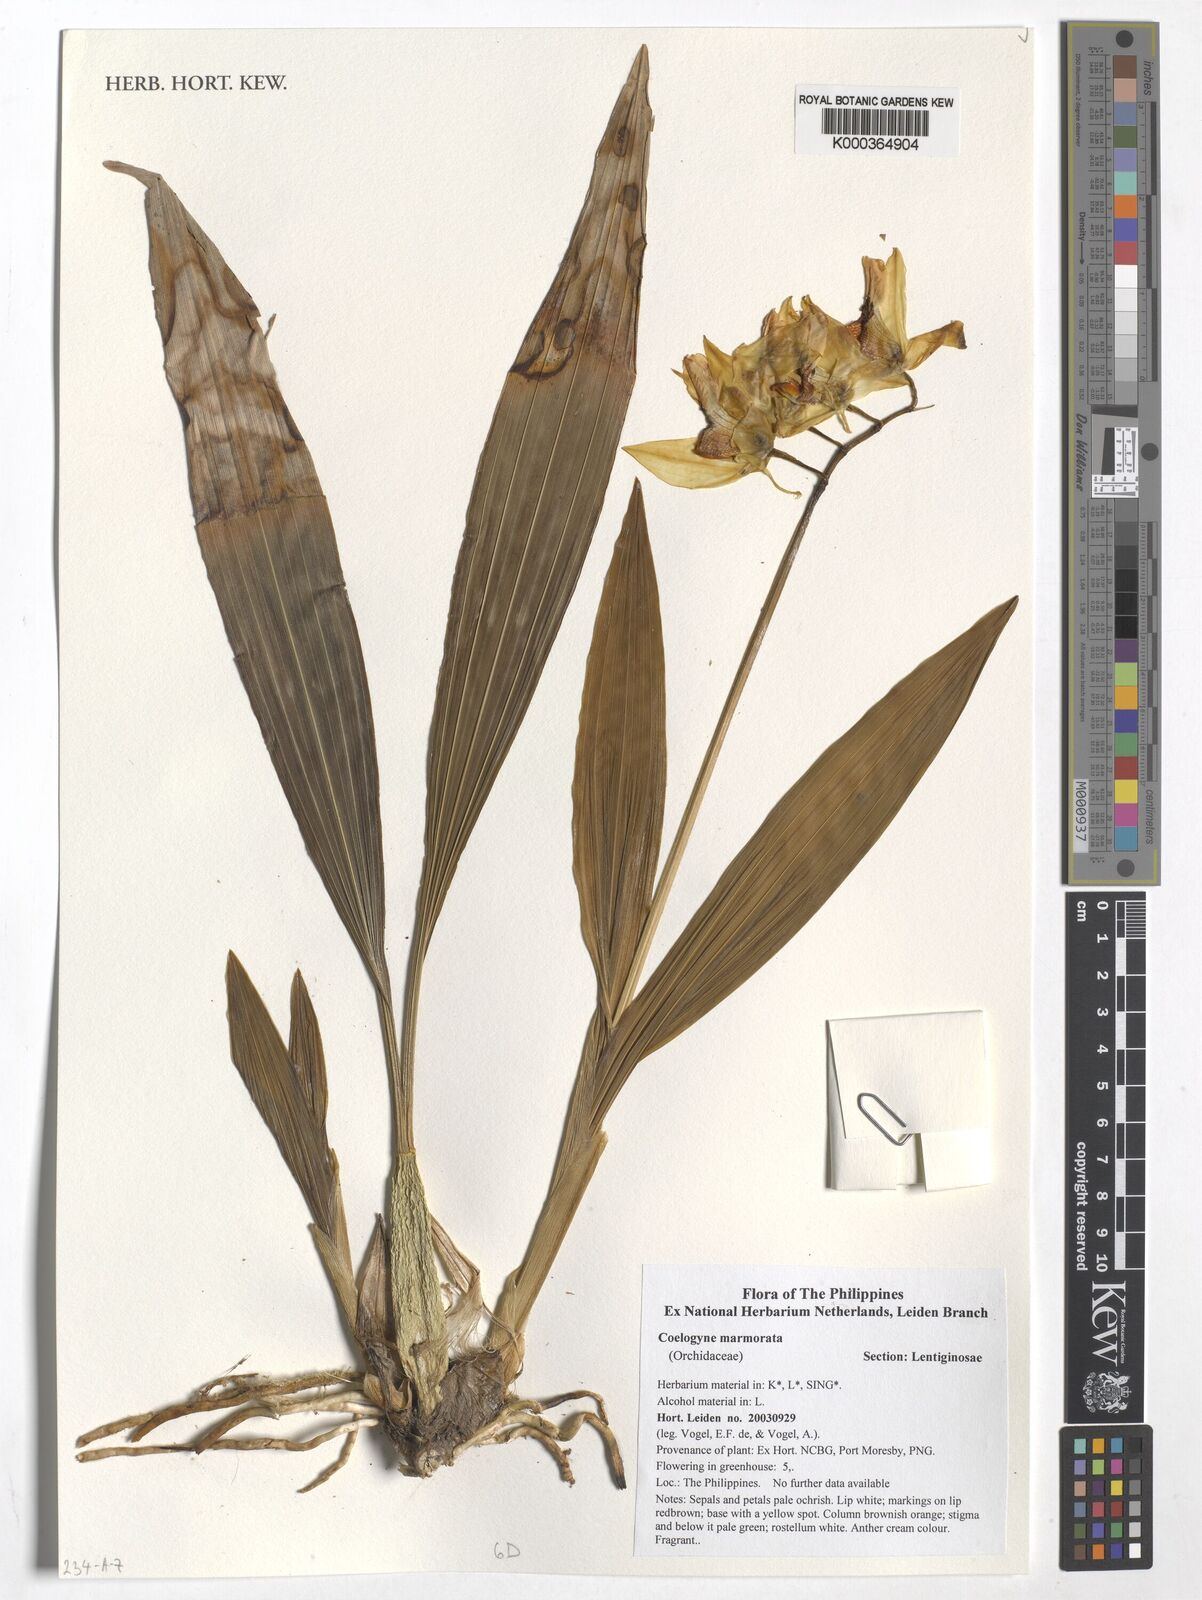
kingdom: Plantae
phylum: Tracheophyta
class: Liliopsida
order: Asparagales
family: Orchidaceae
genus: Coelogyne
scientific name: Coelogyne marmorata
